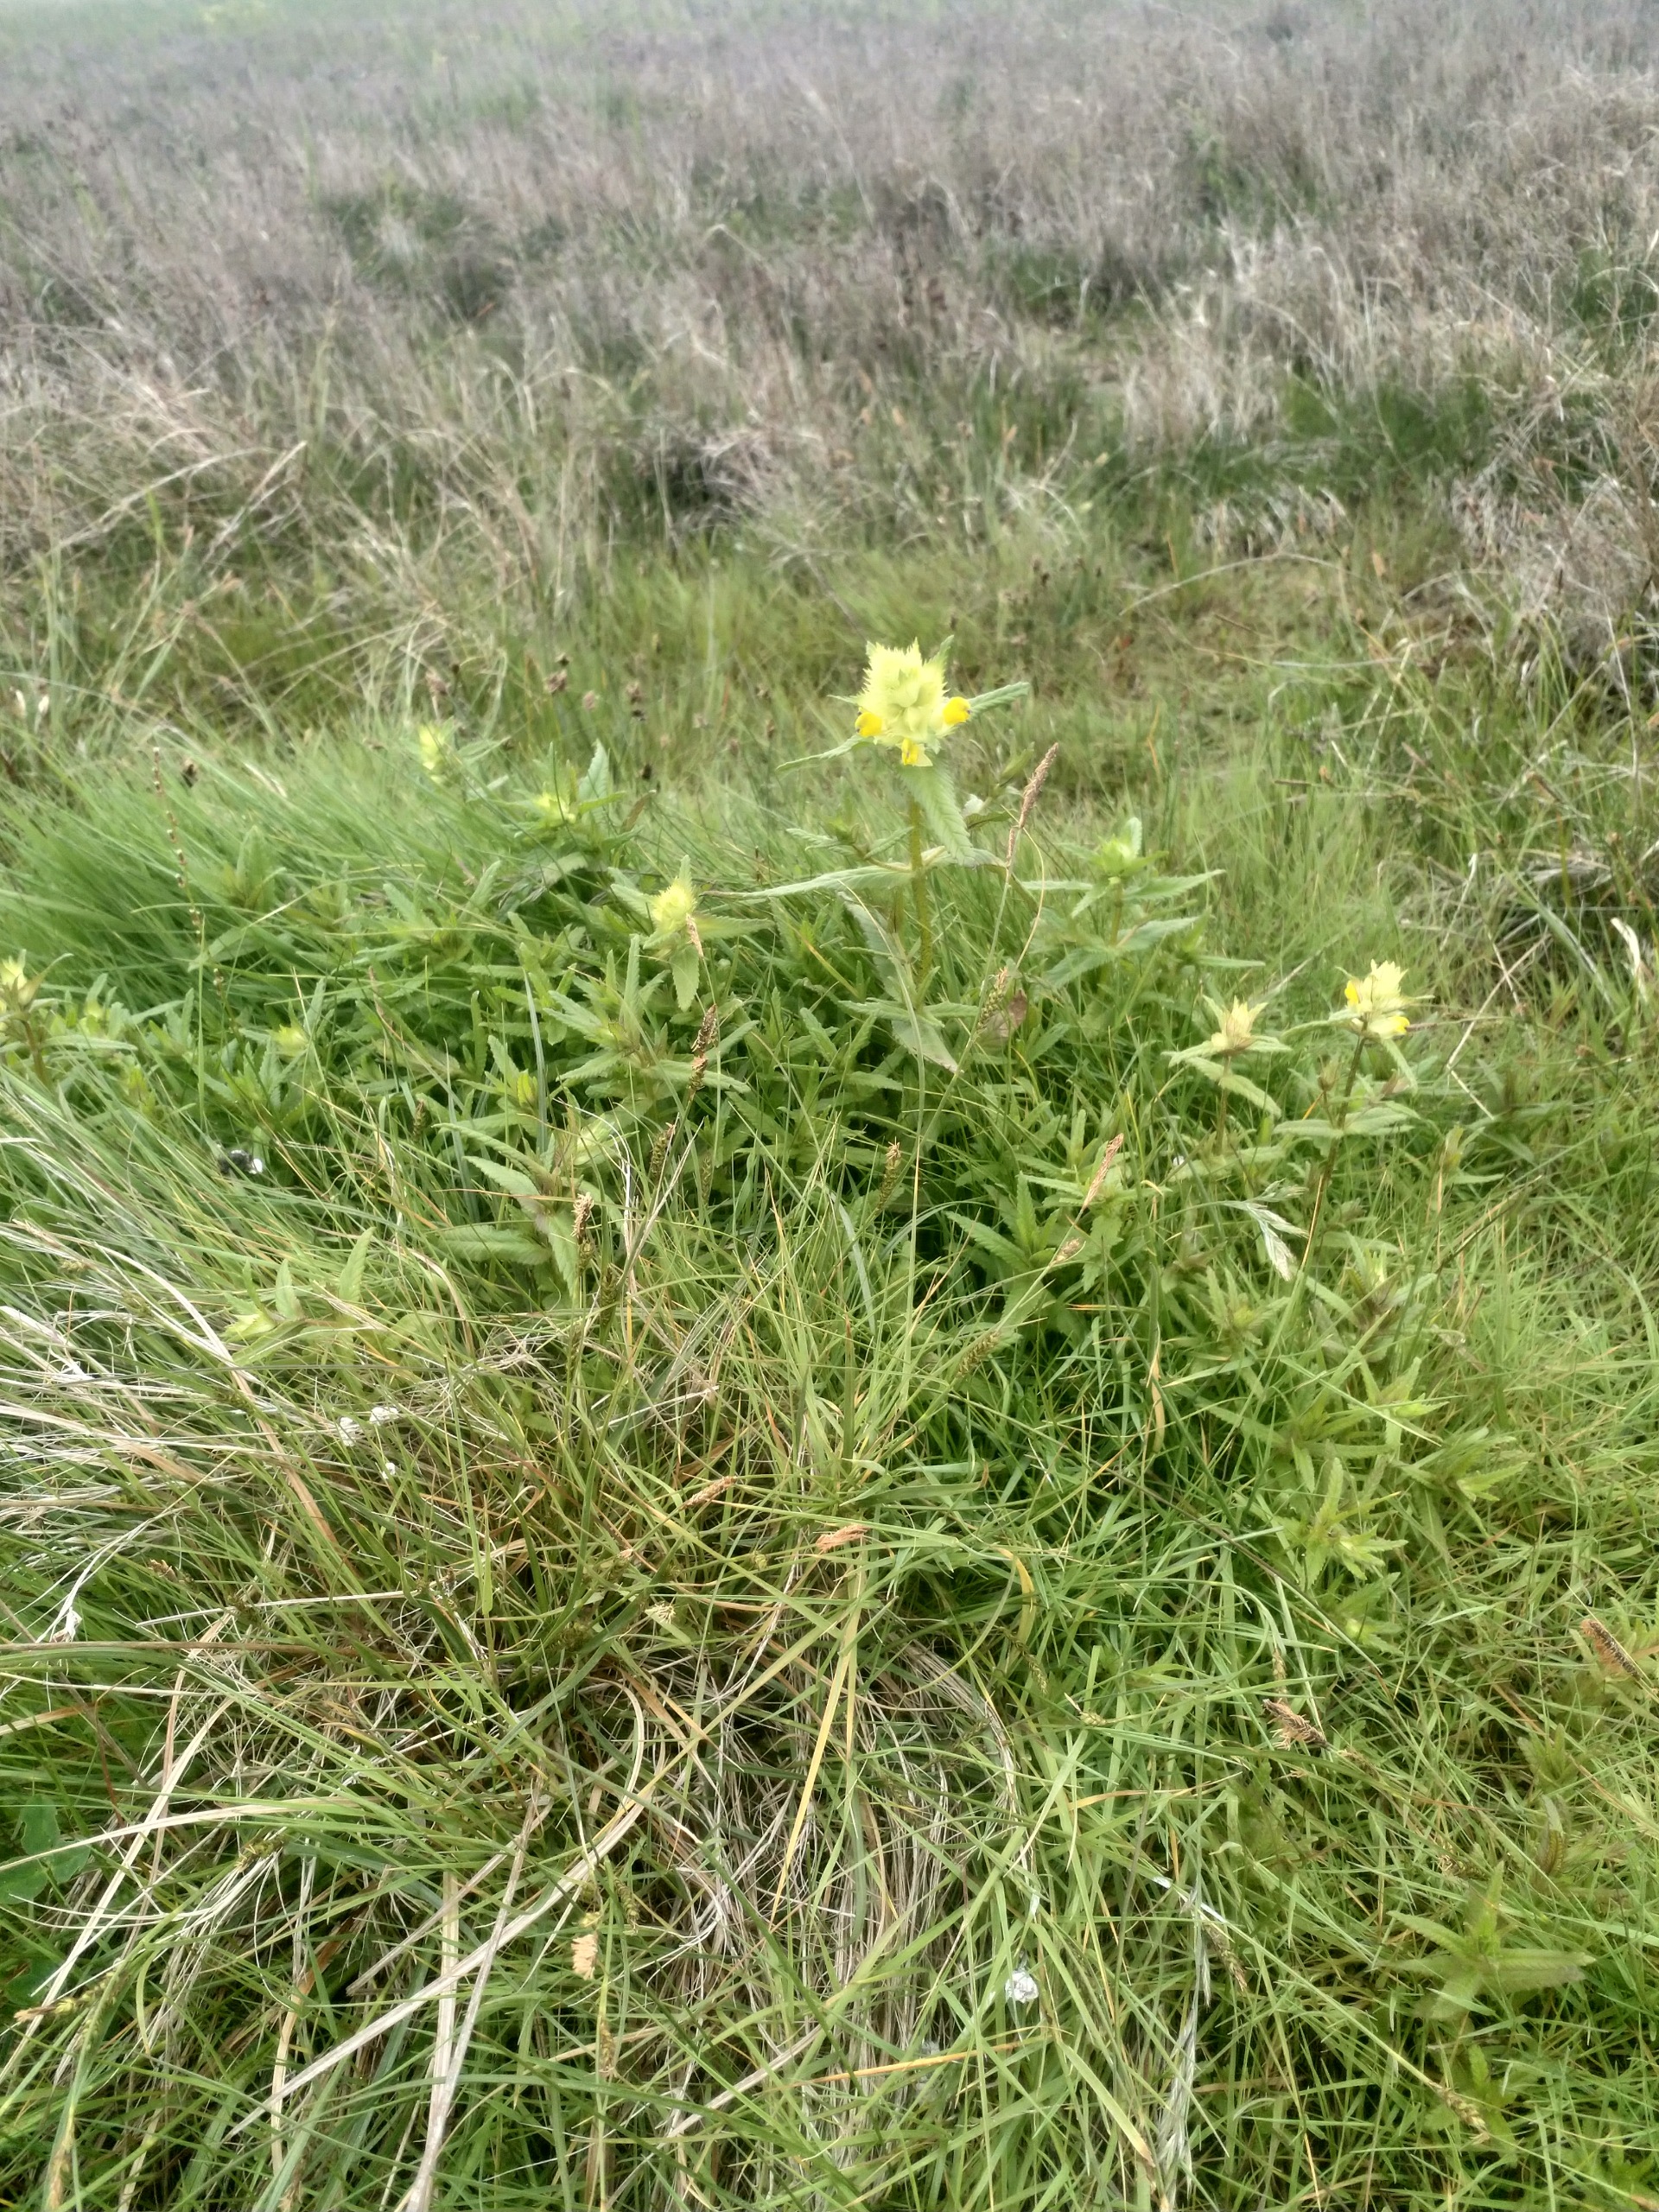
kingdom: Plantae
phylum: Tracheophyta
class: Magnoliopsida
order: Lamiales
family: Orobanchaceae
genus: Rhinanthus
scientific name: Rhinanthus
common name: Stor skjaller
